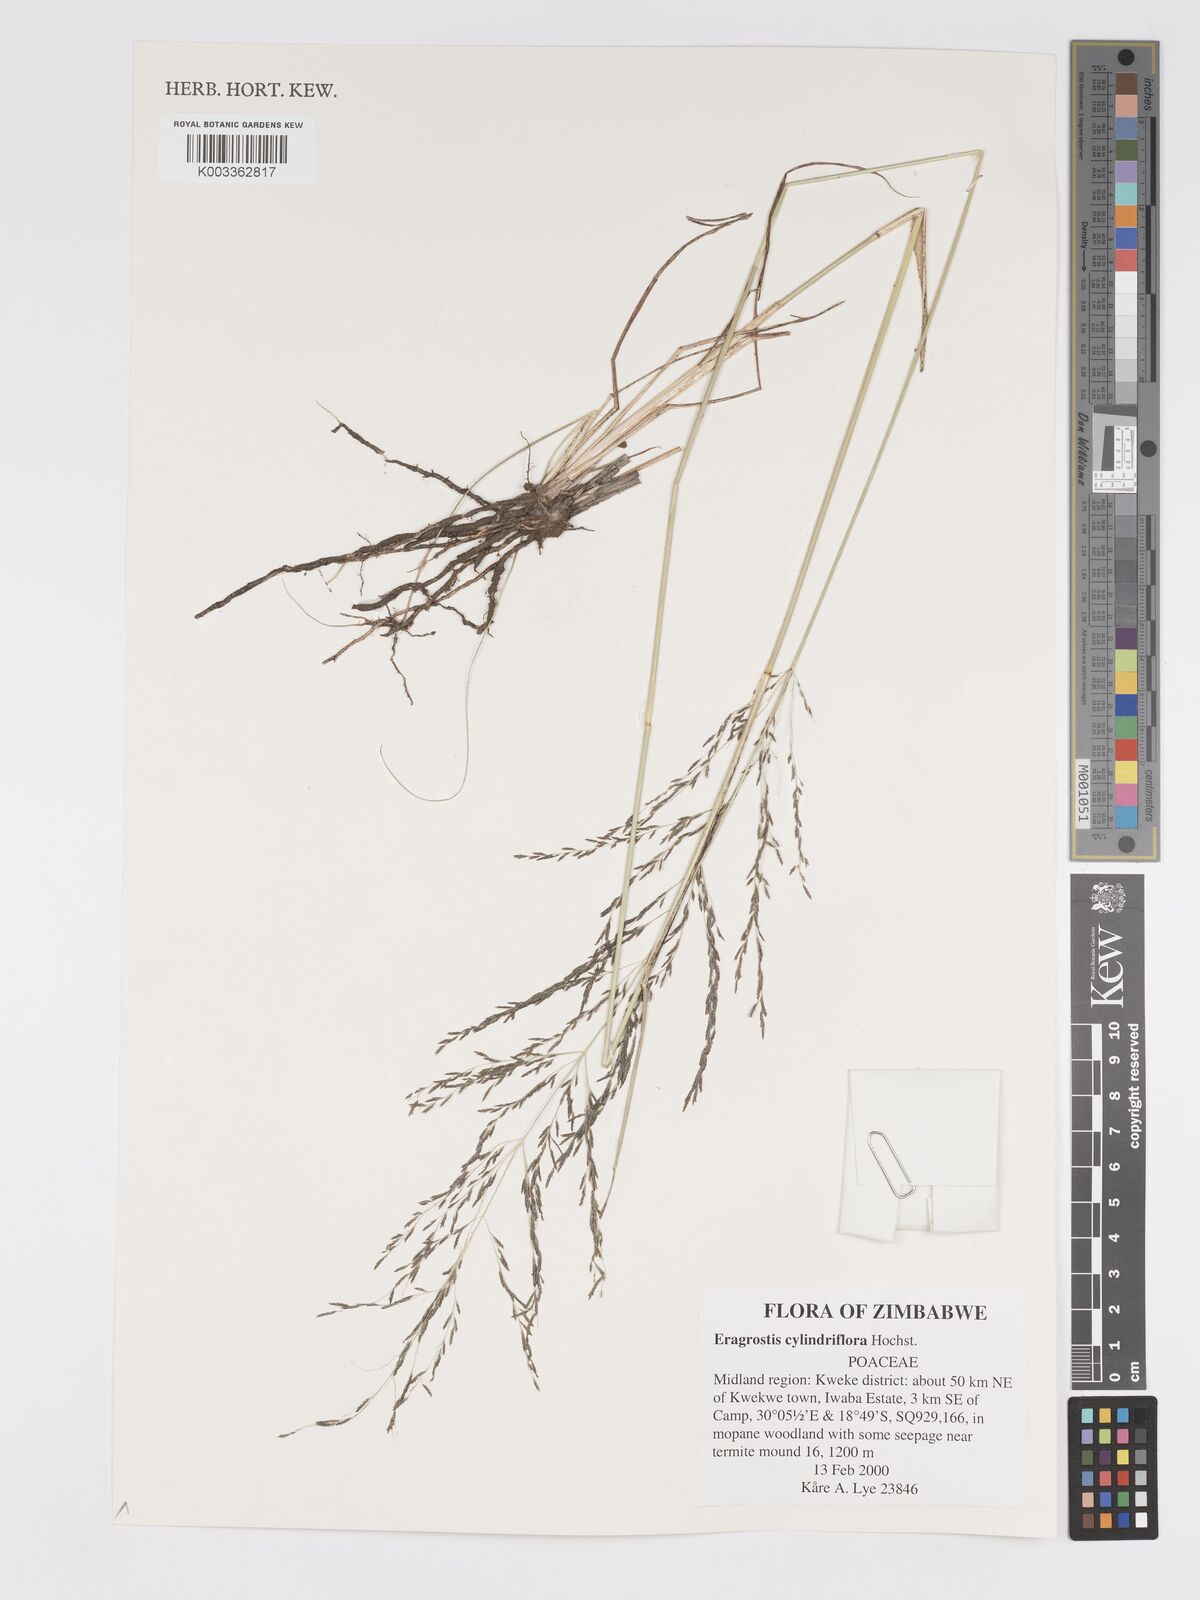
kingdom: Plantae
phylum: Tracheophyta
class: Liliopsida
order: Poales
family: Poaceae
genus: Eragrostis
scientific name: Eragrostis cylindriflora
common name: Cylinderflower lovegrass
